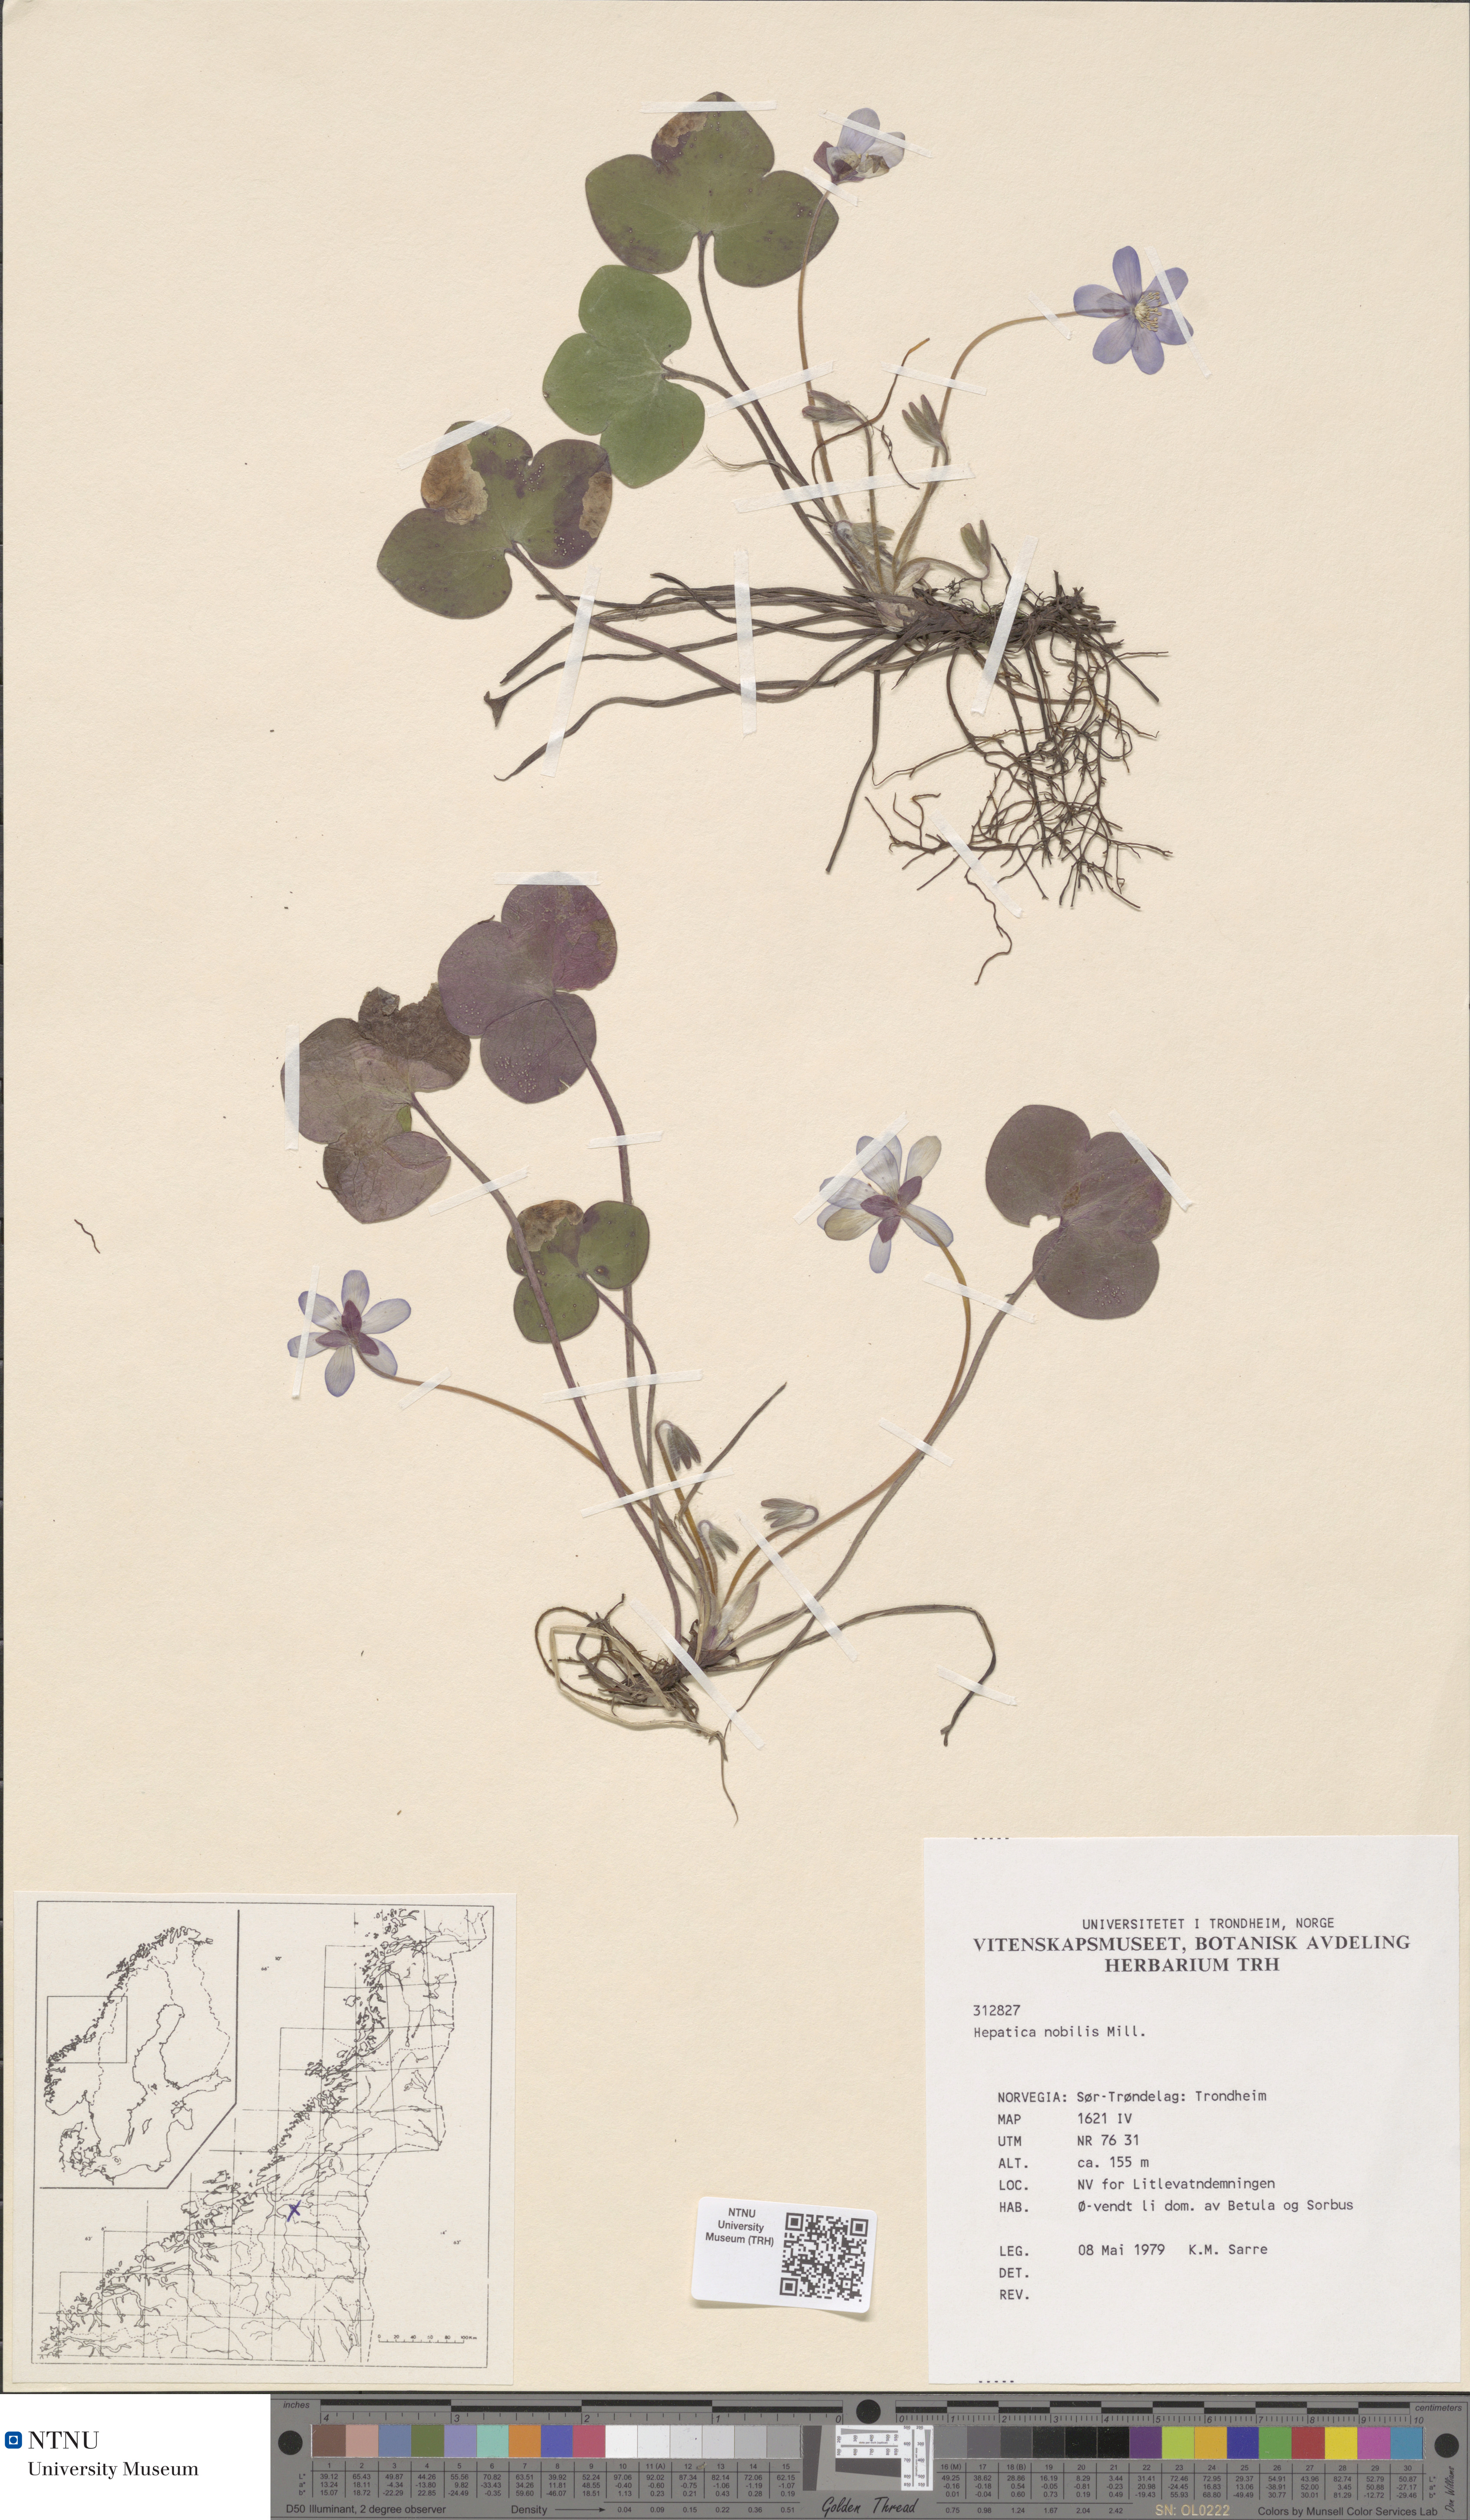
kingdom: Plantae
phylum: Tracheophyta
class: Magnoliopsida
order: Ranunculales
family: Ranunculaceae
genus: Hepatica
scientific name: Hepatica nobilis
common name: Liverleaf
